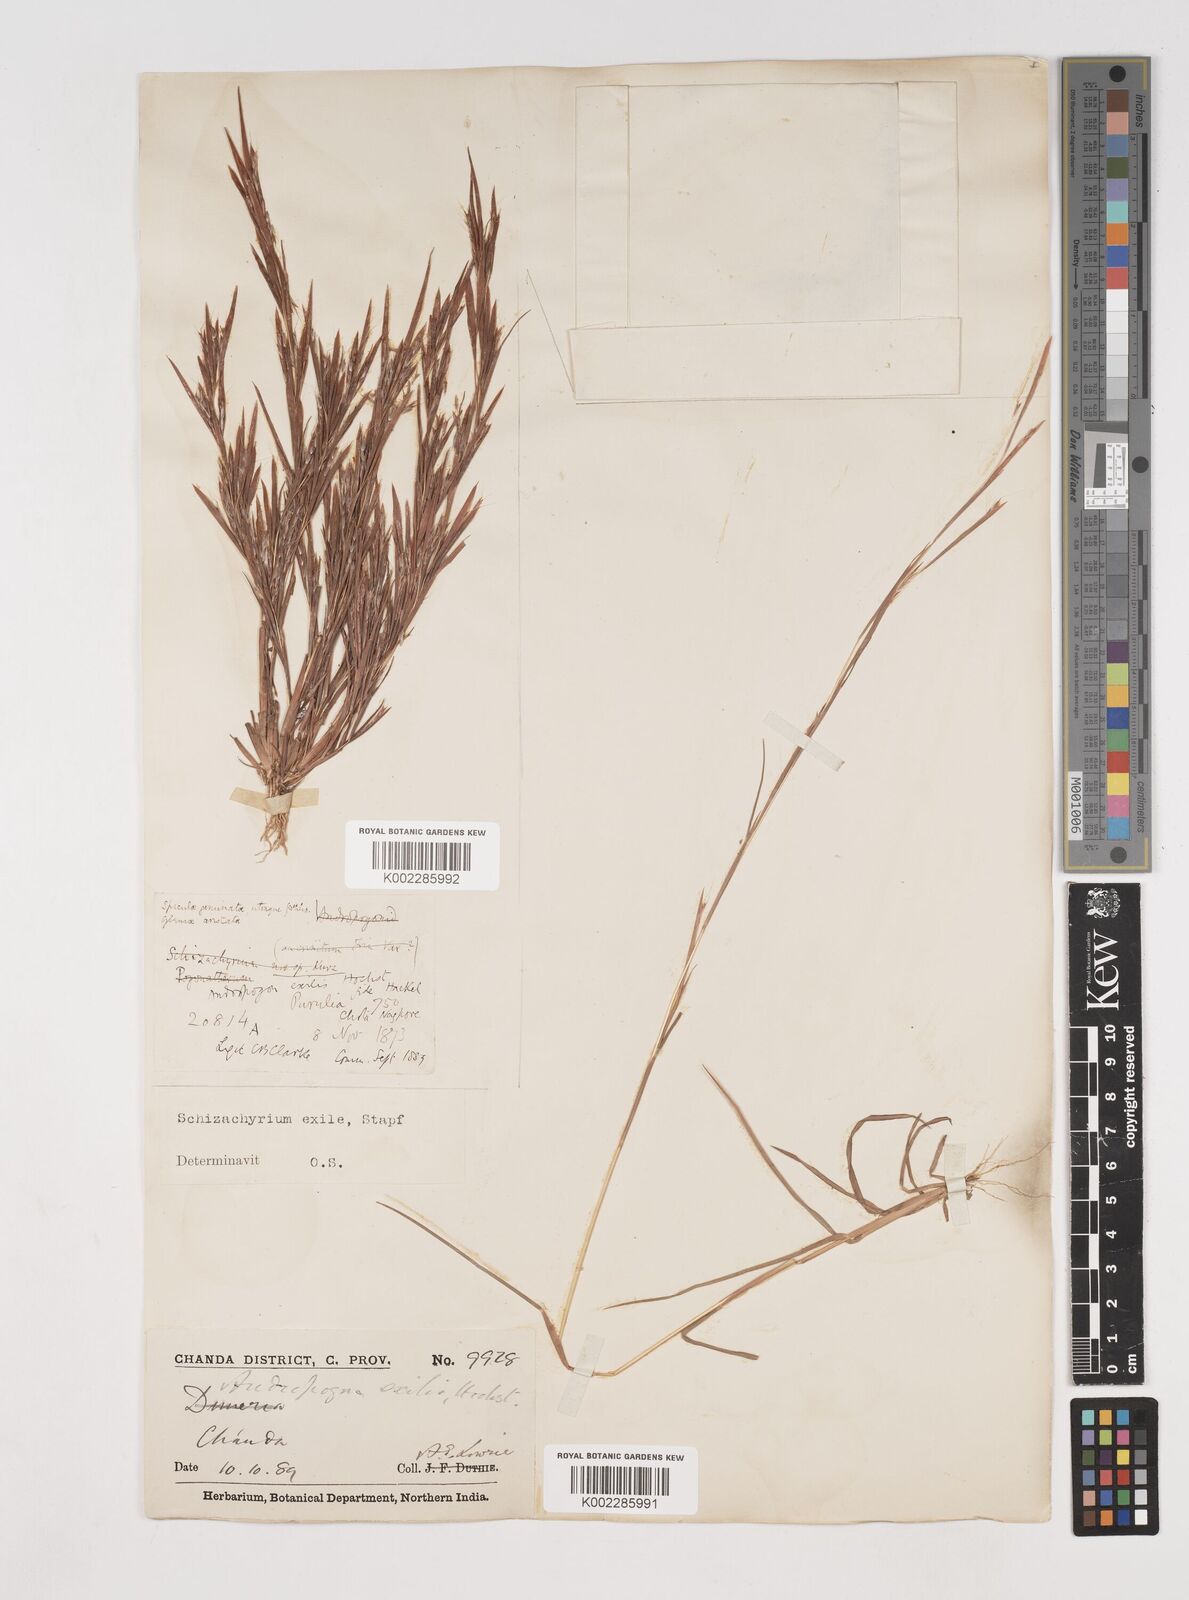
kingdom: Plantae
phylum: Tracheophyta
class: Liliopsida
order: Poales
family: Poaceae
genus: Schizachyrium
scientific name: Schizachyrium exile
